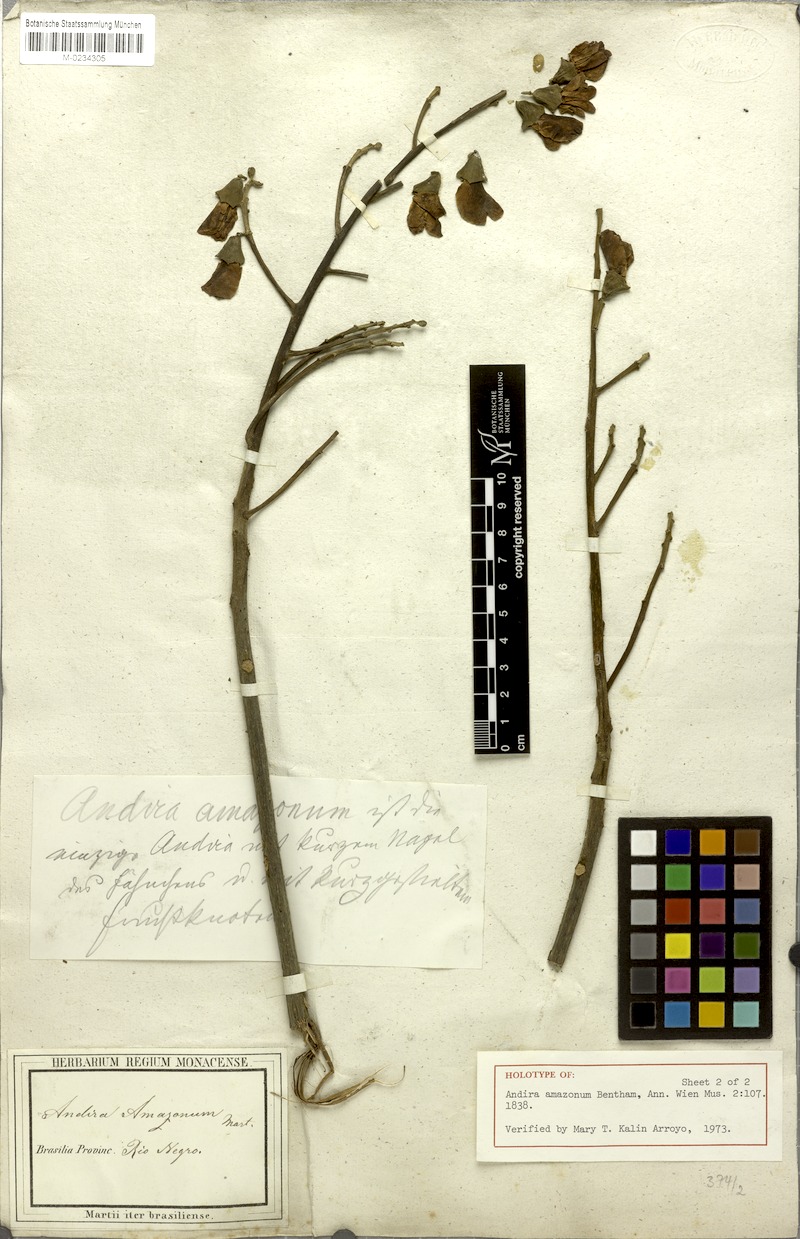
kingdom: Plantae
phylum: Tracheophyta
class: Magnoliopsida
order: Fabales
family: Fabaceae
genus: Vatairea
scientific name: Vatairea guianensis
